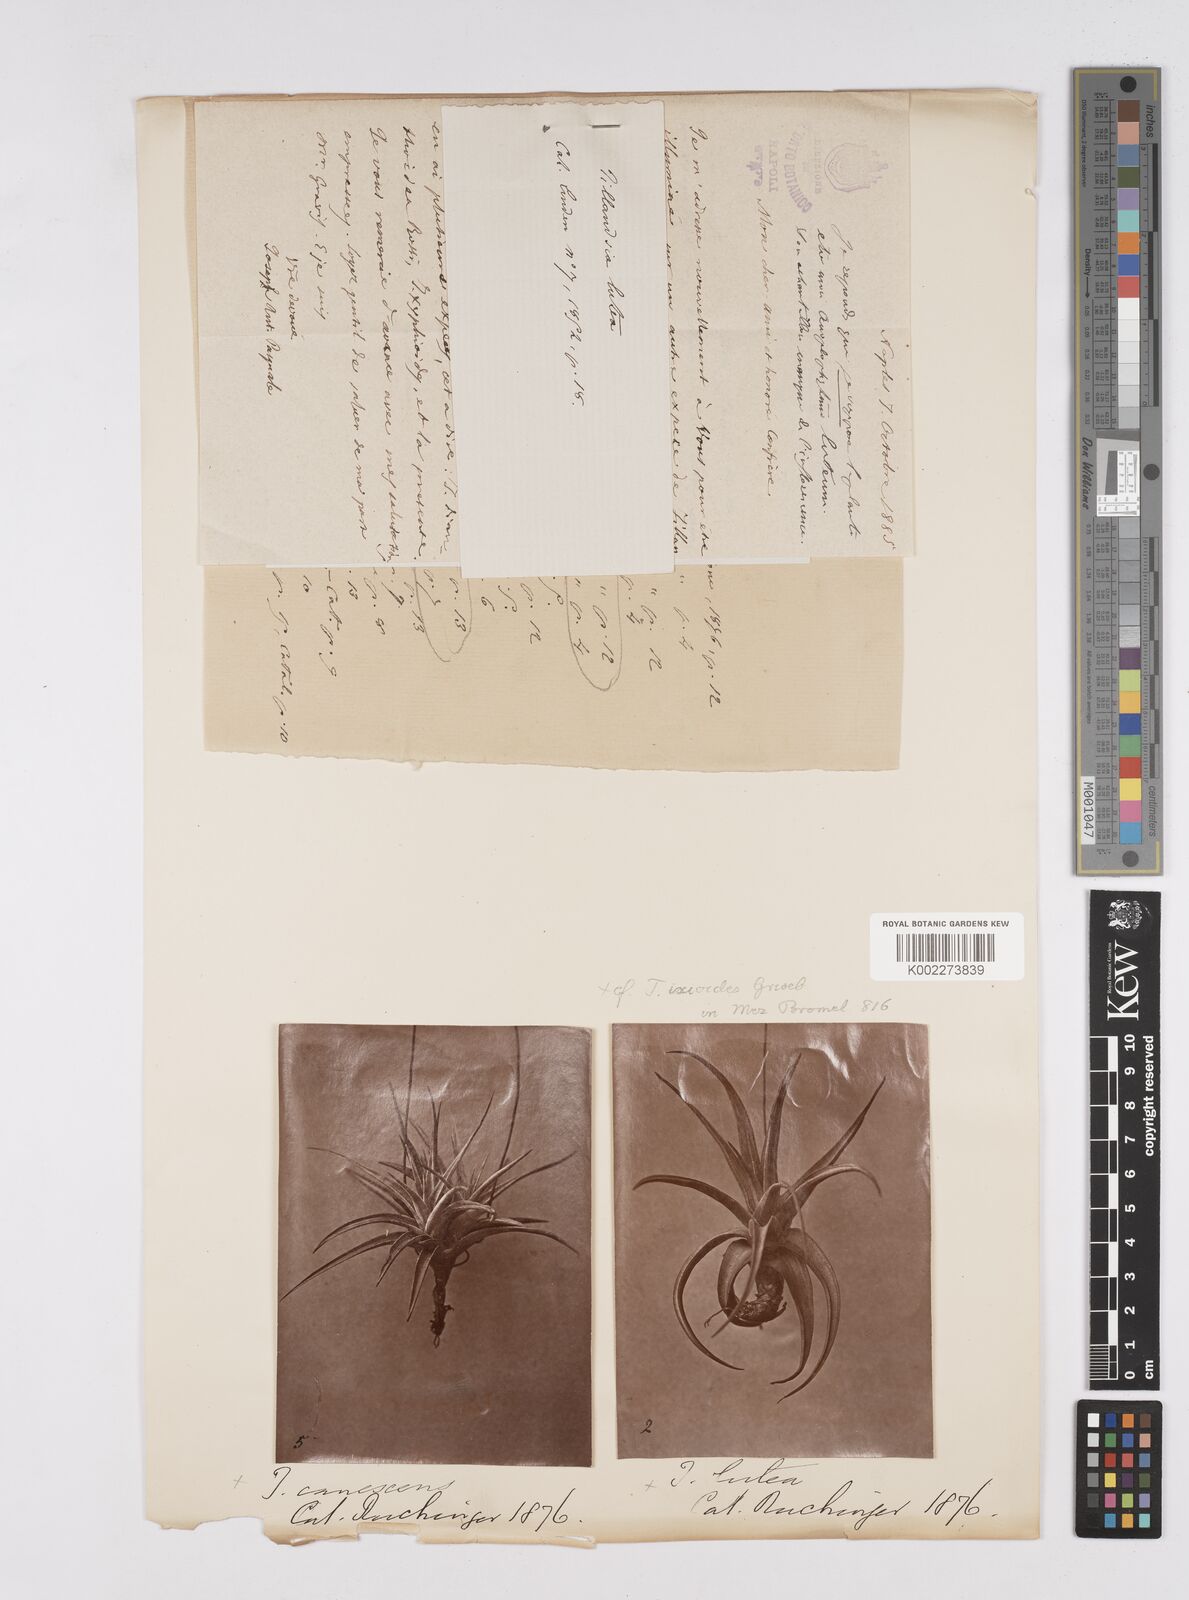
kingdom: Plantae
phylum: Tracheophyta
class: Liliopsida
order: Poales
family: Bromeliaceae
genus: Tillandsia
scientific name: Tillandsia ixioides
